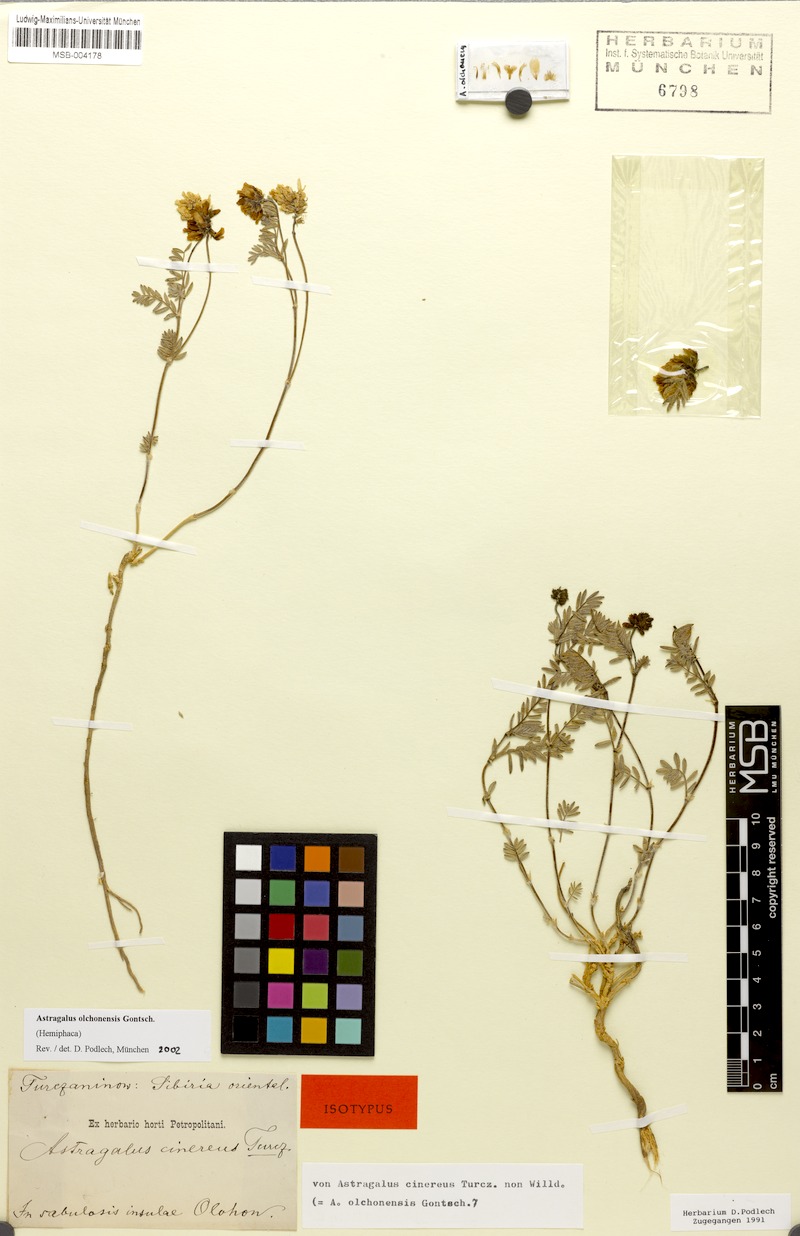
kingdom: Plantae
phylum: Tracheophyta
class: Magnoliopsida
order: Fabales
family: Fabaceae
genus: Astragalus
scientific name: Astragalus olchonensis
